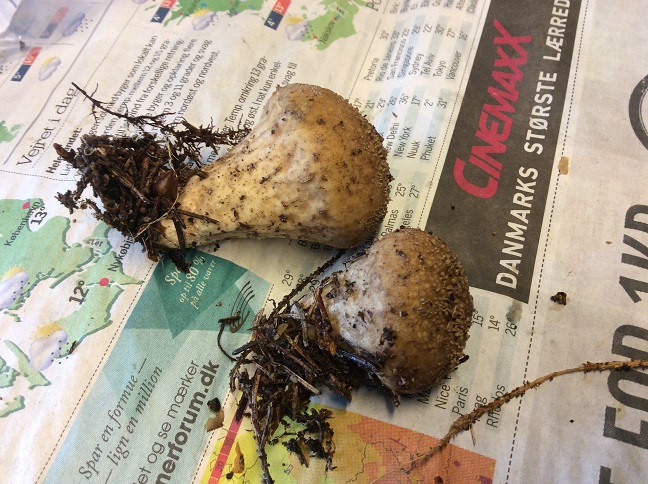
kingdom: Fungi
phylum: Basidiomycota
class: Agaricomycetes
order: Agaricales
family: Lycoperdaceae
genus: Lycoperdon
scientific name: Lycoperdon perlatum
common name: krystal-støvbold
